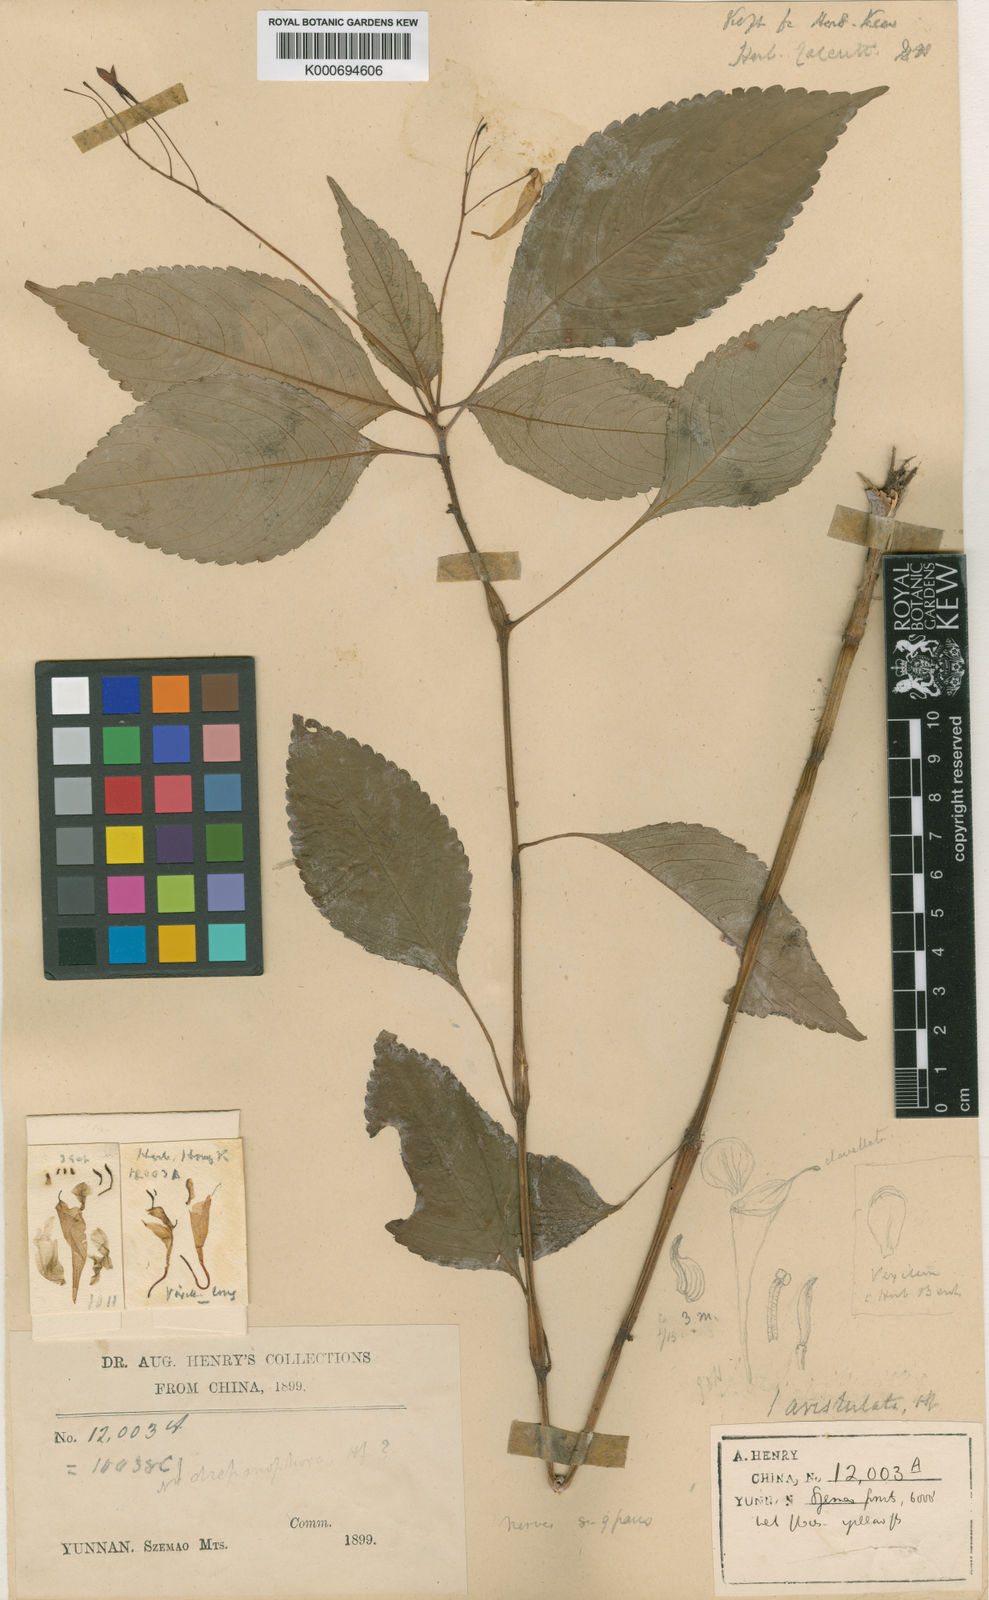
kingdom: Plantae
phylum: Tracheophyta
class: Magnoliopsida
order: Ericales
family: Balsaminaceae
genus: Impatiens
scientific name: Impatiens
